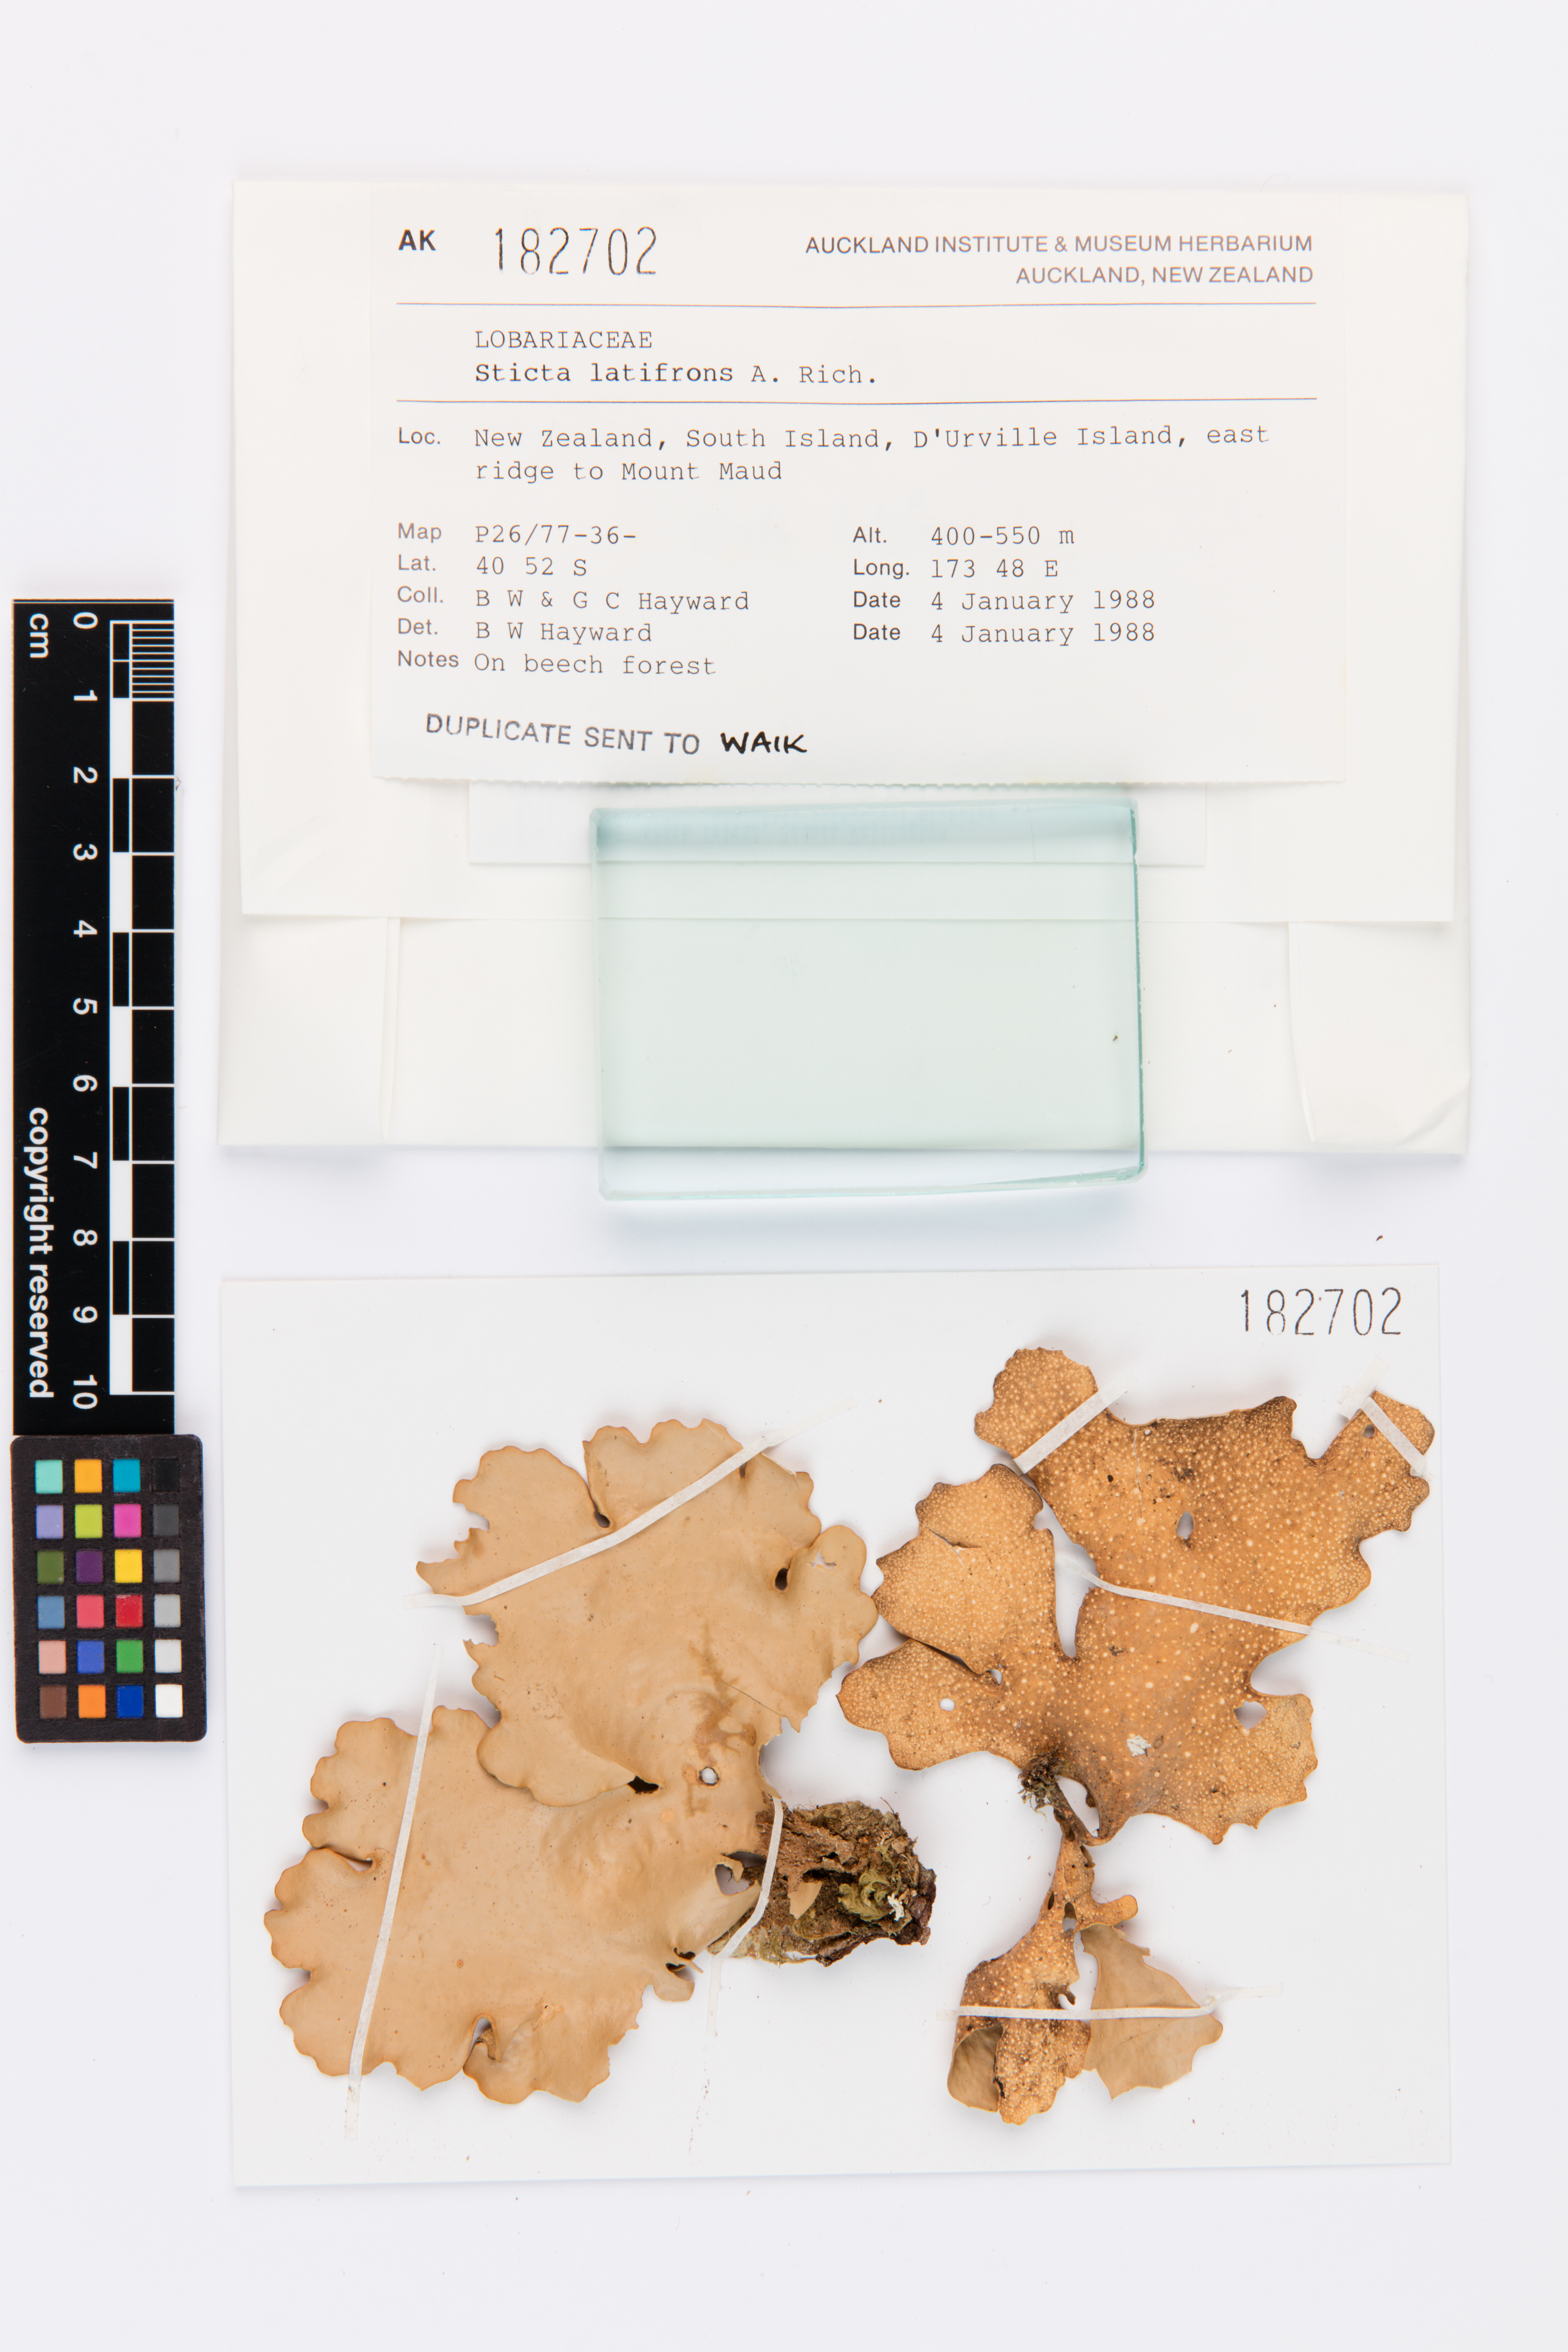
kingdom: Fungi
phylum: Ascomycota
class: Lecanoromycetes
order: Peltigerales
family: Lobariaceae
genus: Sticta
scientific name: Sticta latifrons
